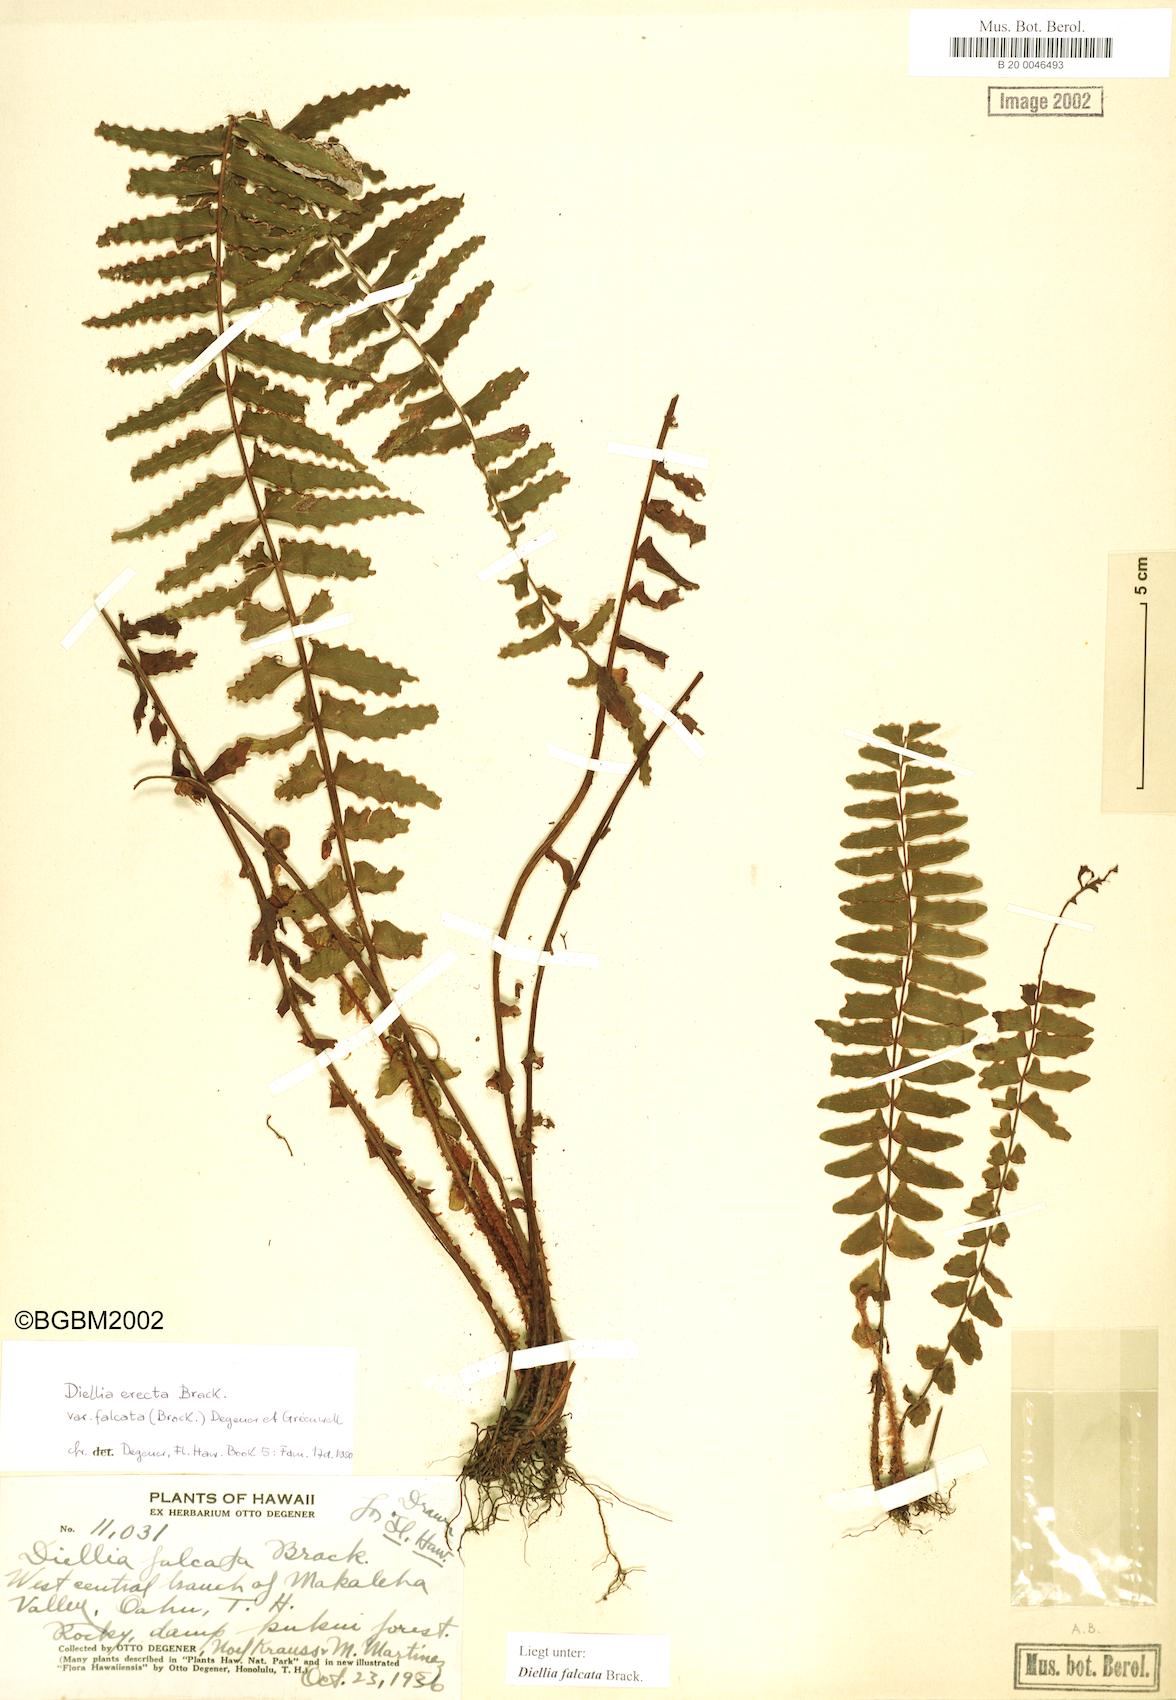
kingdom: Plantae
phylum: Tracheophyta
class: Polypodiopsida
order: Polypodiales
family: Aspleniaceae
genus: Asplenium
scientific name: Asplenium dielfalcatum
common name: Sickle island spleenwort
